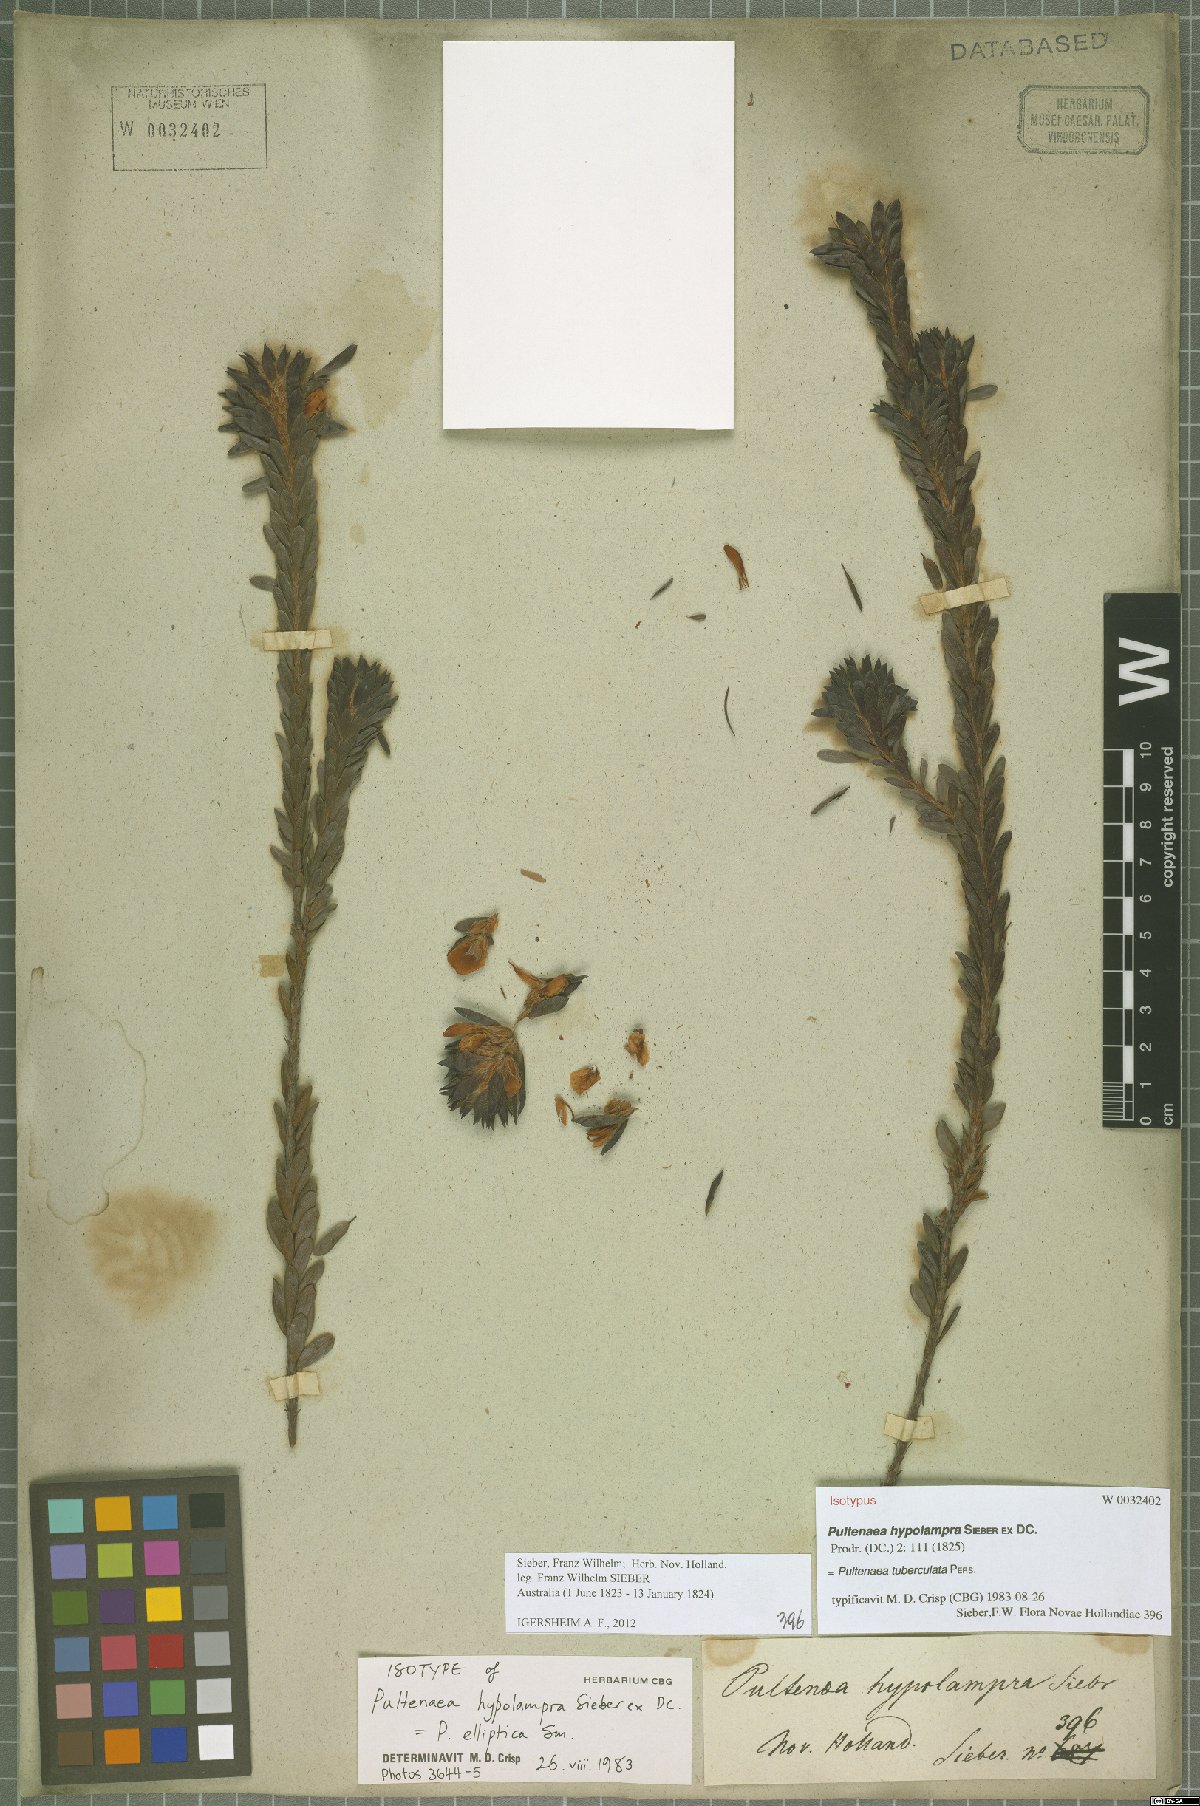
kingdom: Plantae
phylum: Tracheophyta
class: Magnoliopsida
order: Fabales
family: Fabaceae
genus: Pultenaea
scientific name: Pultenaea tuberculata
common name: Wreath bush-pea
